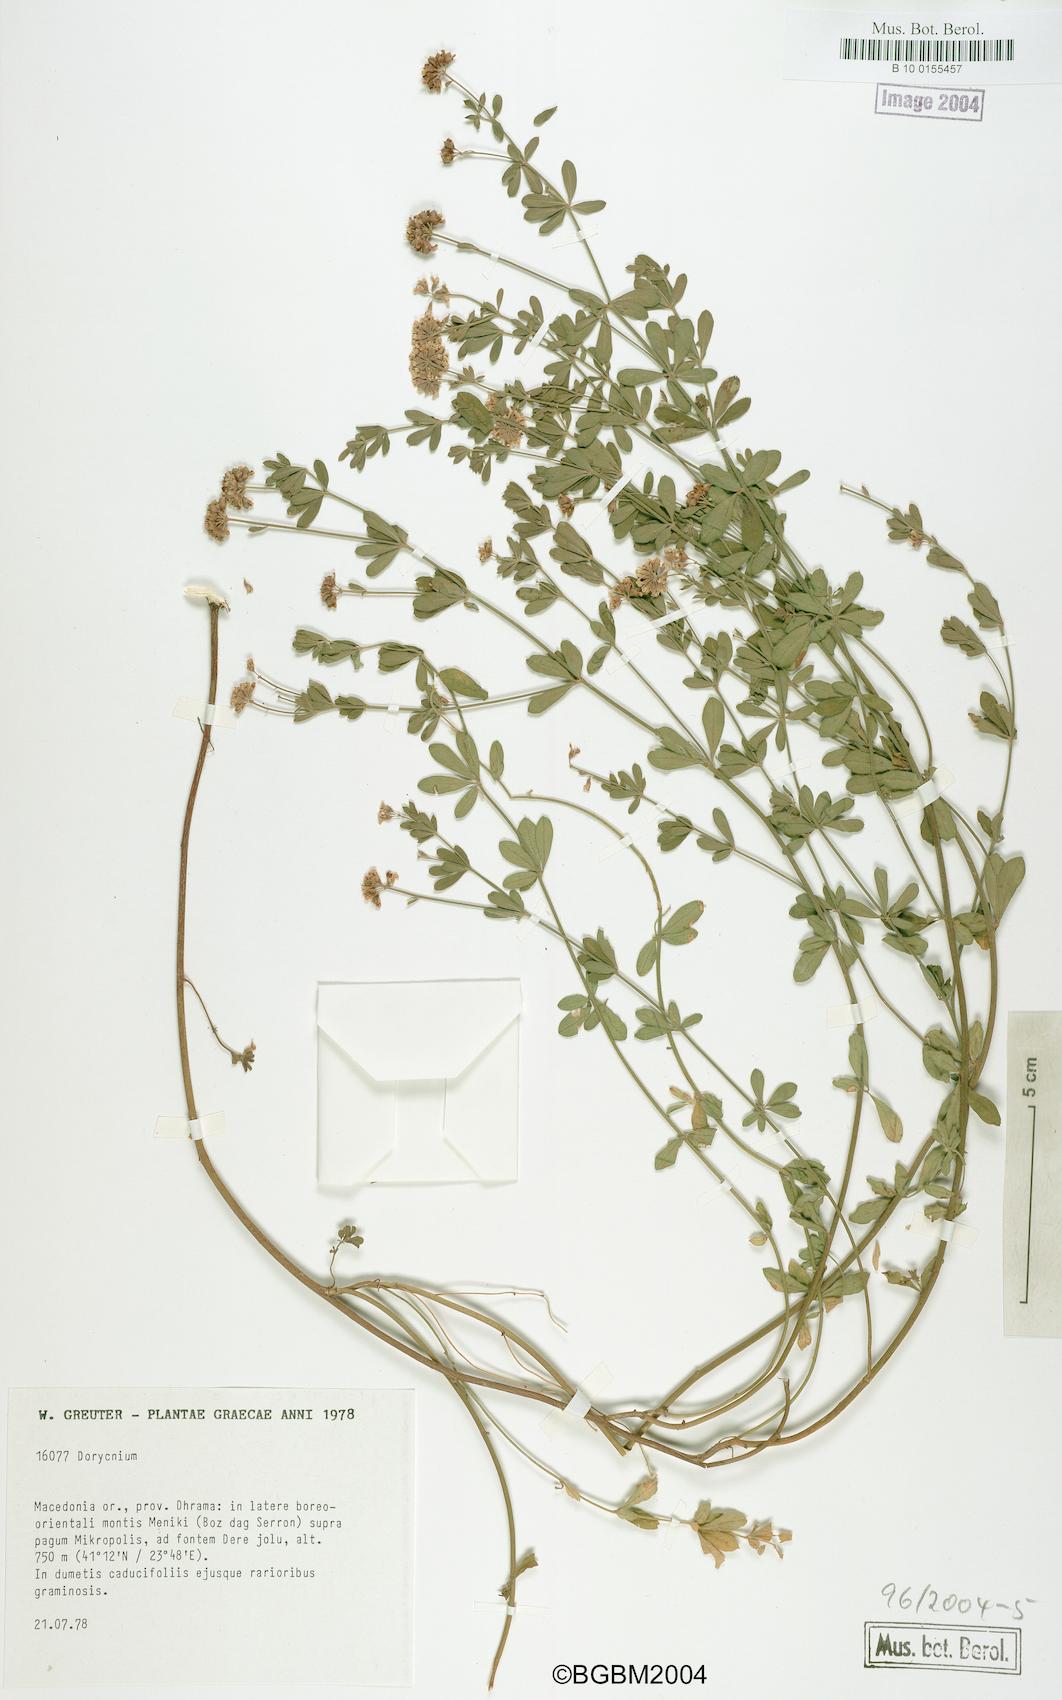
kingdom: Plantae
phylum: Tracheophyta
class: Magnoliopsida
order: Fabales
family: Fabaceae
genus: Lotus
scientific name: Lotus
